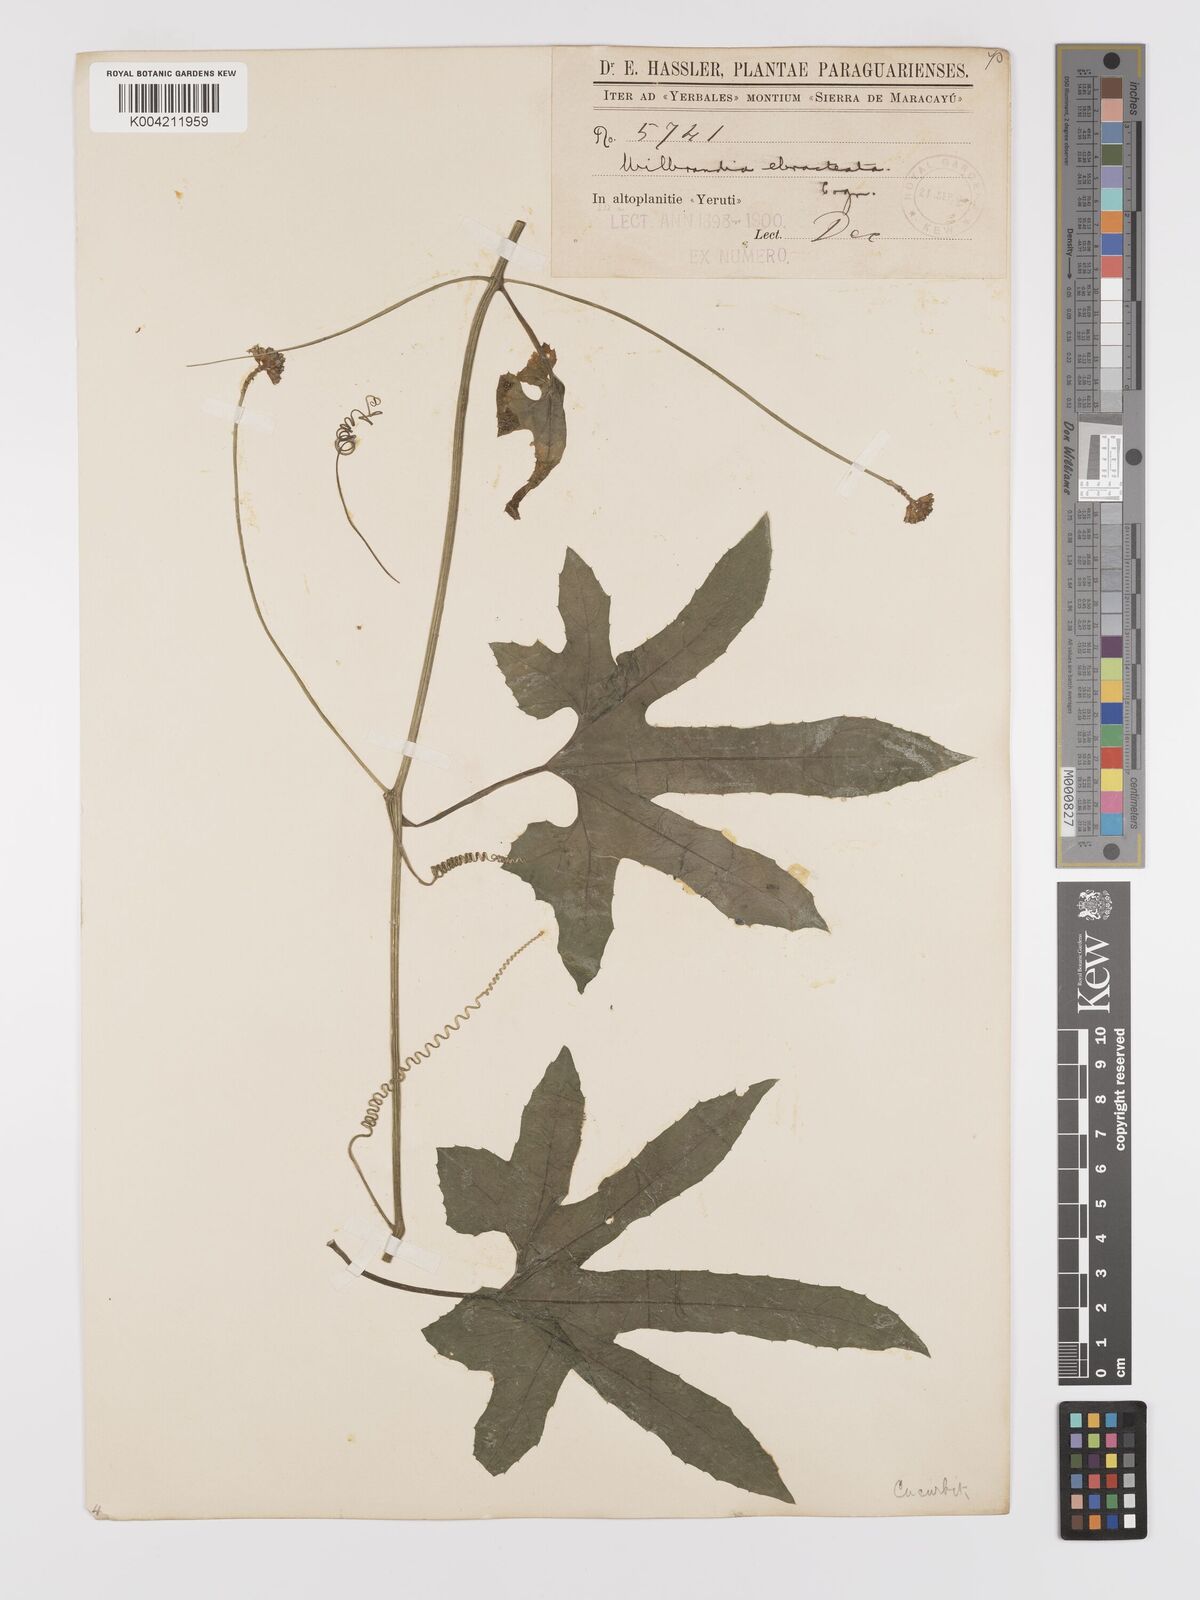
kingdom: Plantae
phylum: Tracheophyta
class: Magnoliopsida
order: Cucurbitales
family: Cucurbitaceae
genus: Wilbrandia
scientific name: Wilbrandia ebracteata
